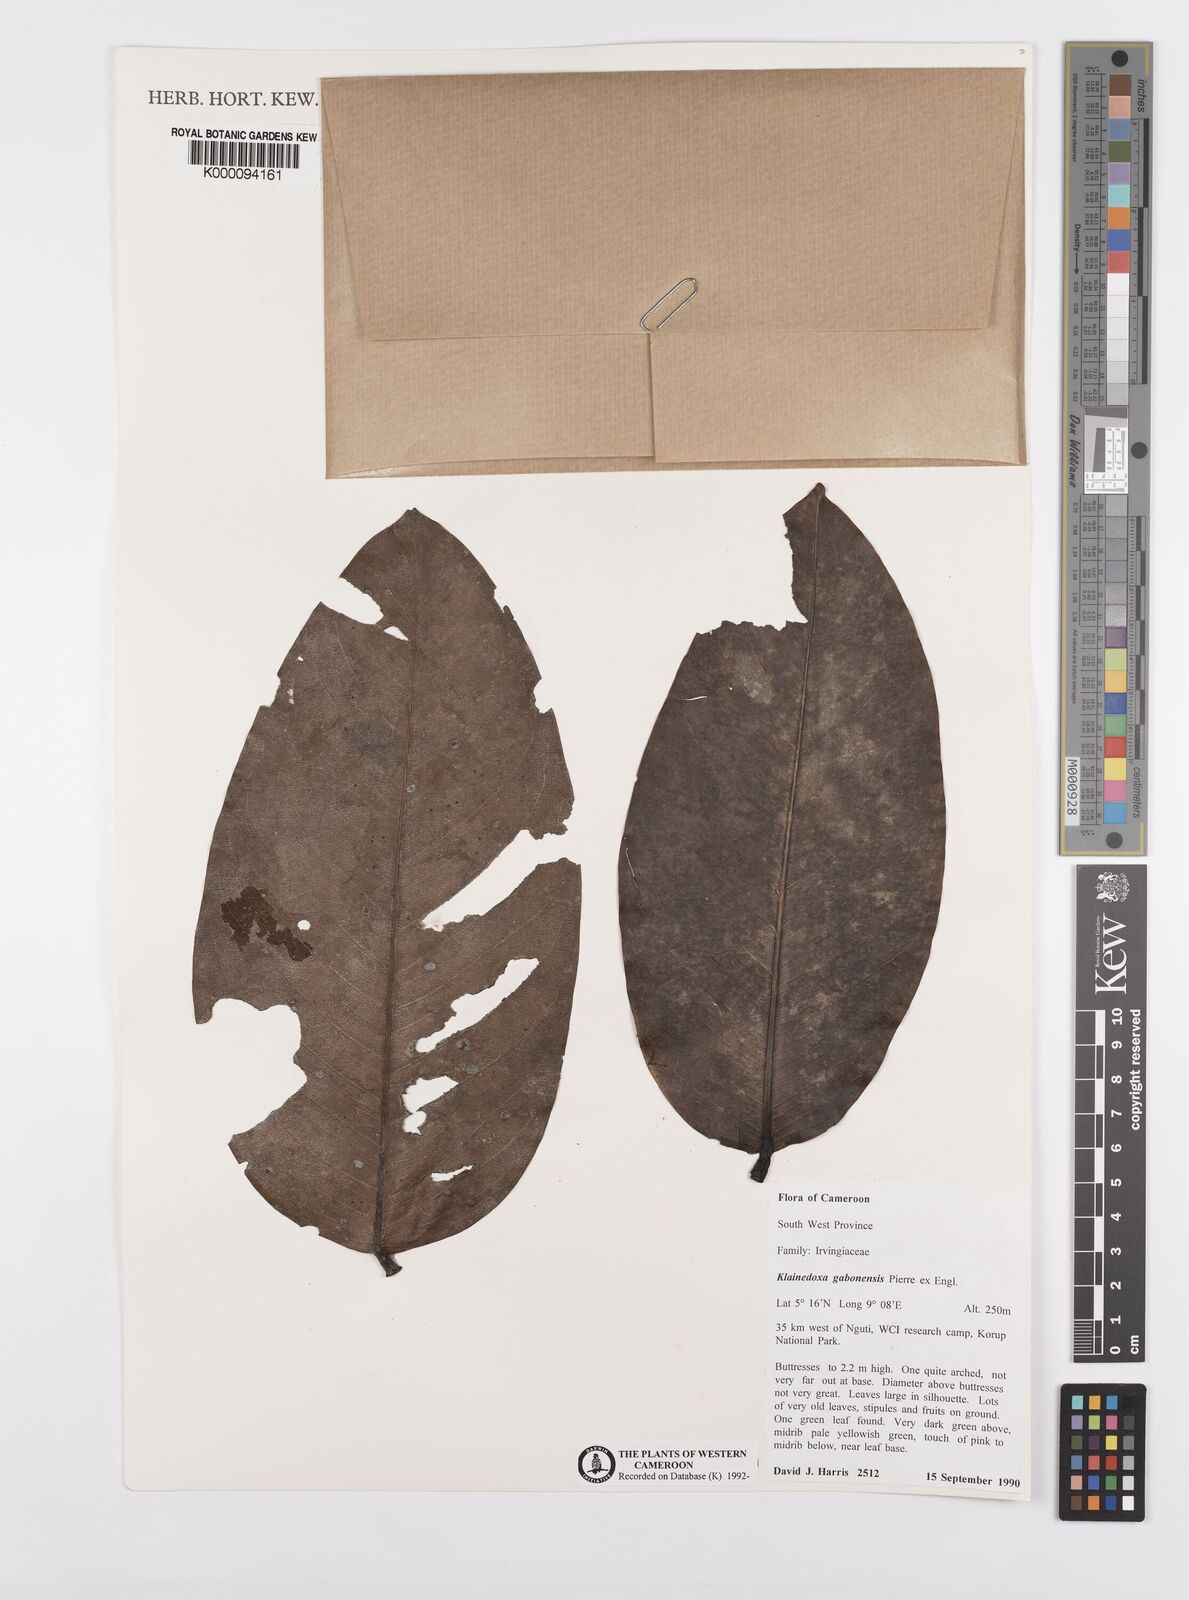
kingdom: Plantae
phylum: Tracheophyta
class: Magnoliopsida
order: Malpighiales
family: Irvingiaceae
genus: Klainedoxa
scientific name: Klainedoxa gabonensis
